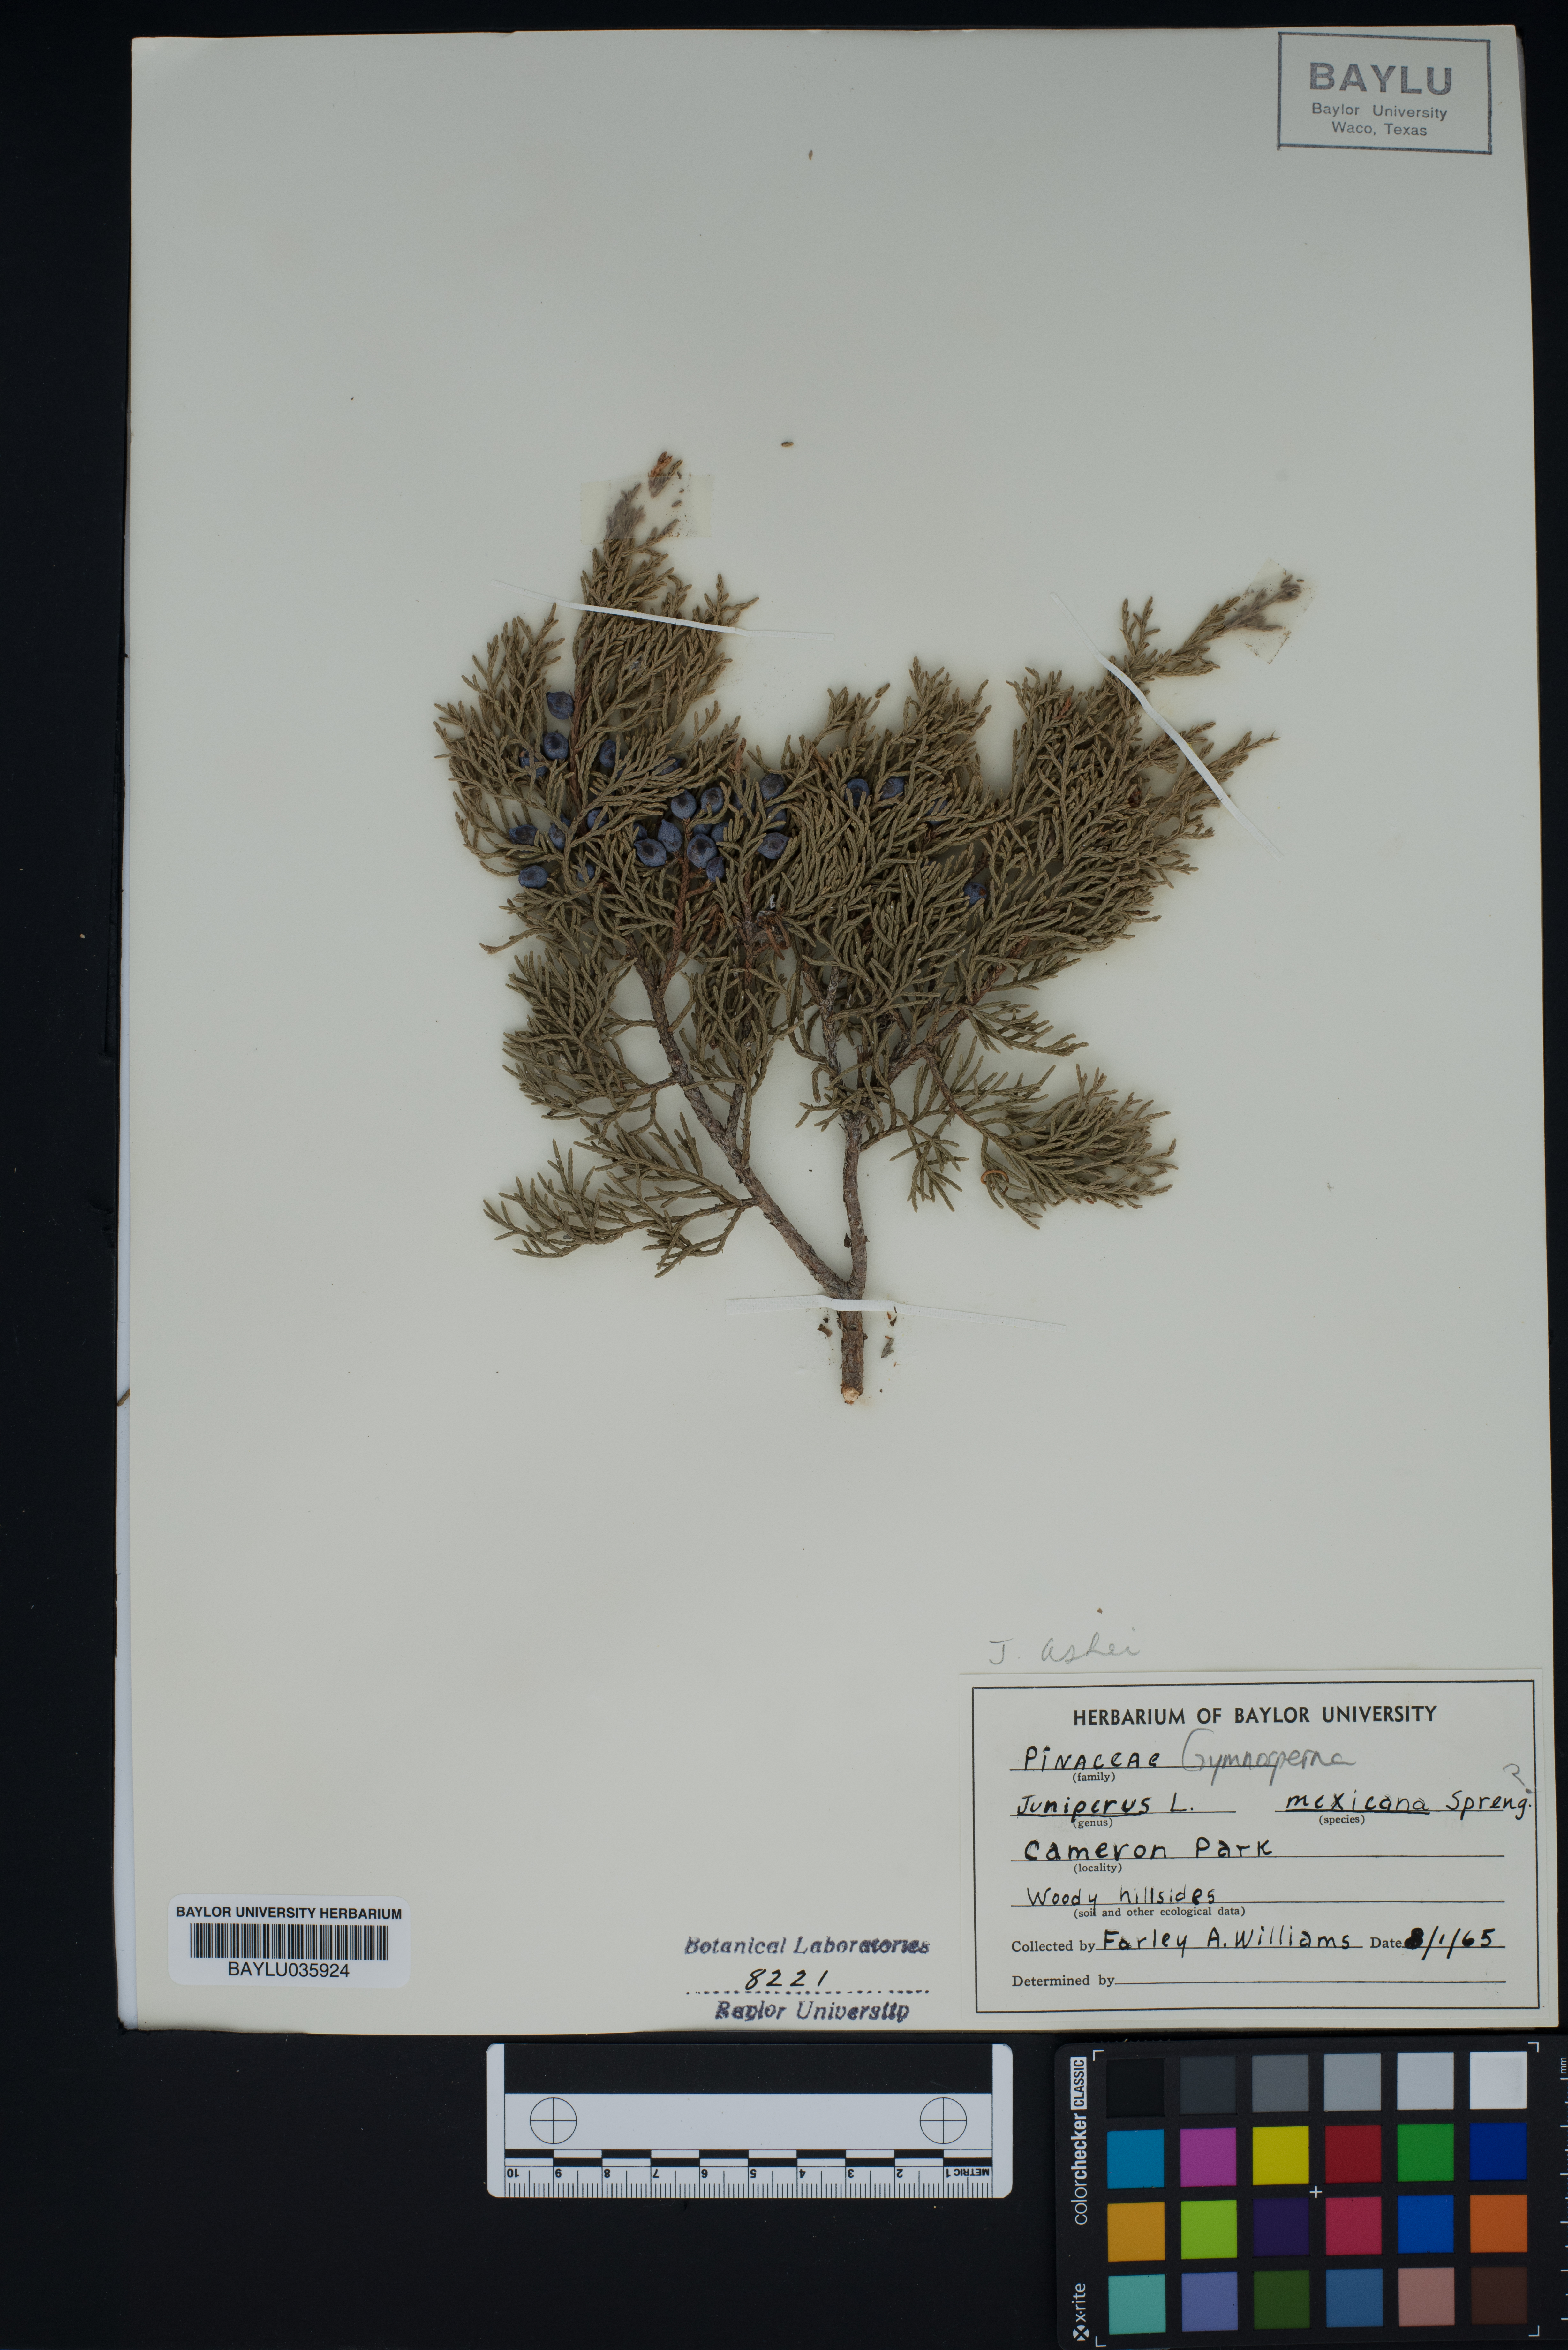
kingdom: Plantae
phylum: Tracheophyta
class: Pinopsida
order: Pinales
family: Cupressaceae
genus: Juniperus
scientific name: Juniperus ashei
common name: Mexican juniper
